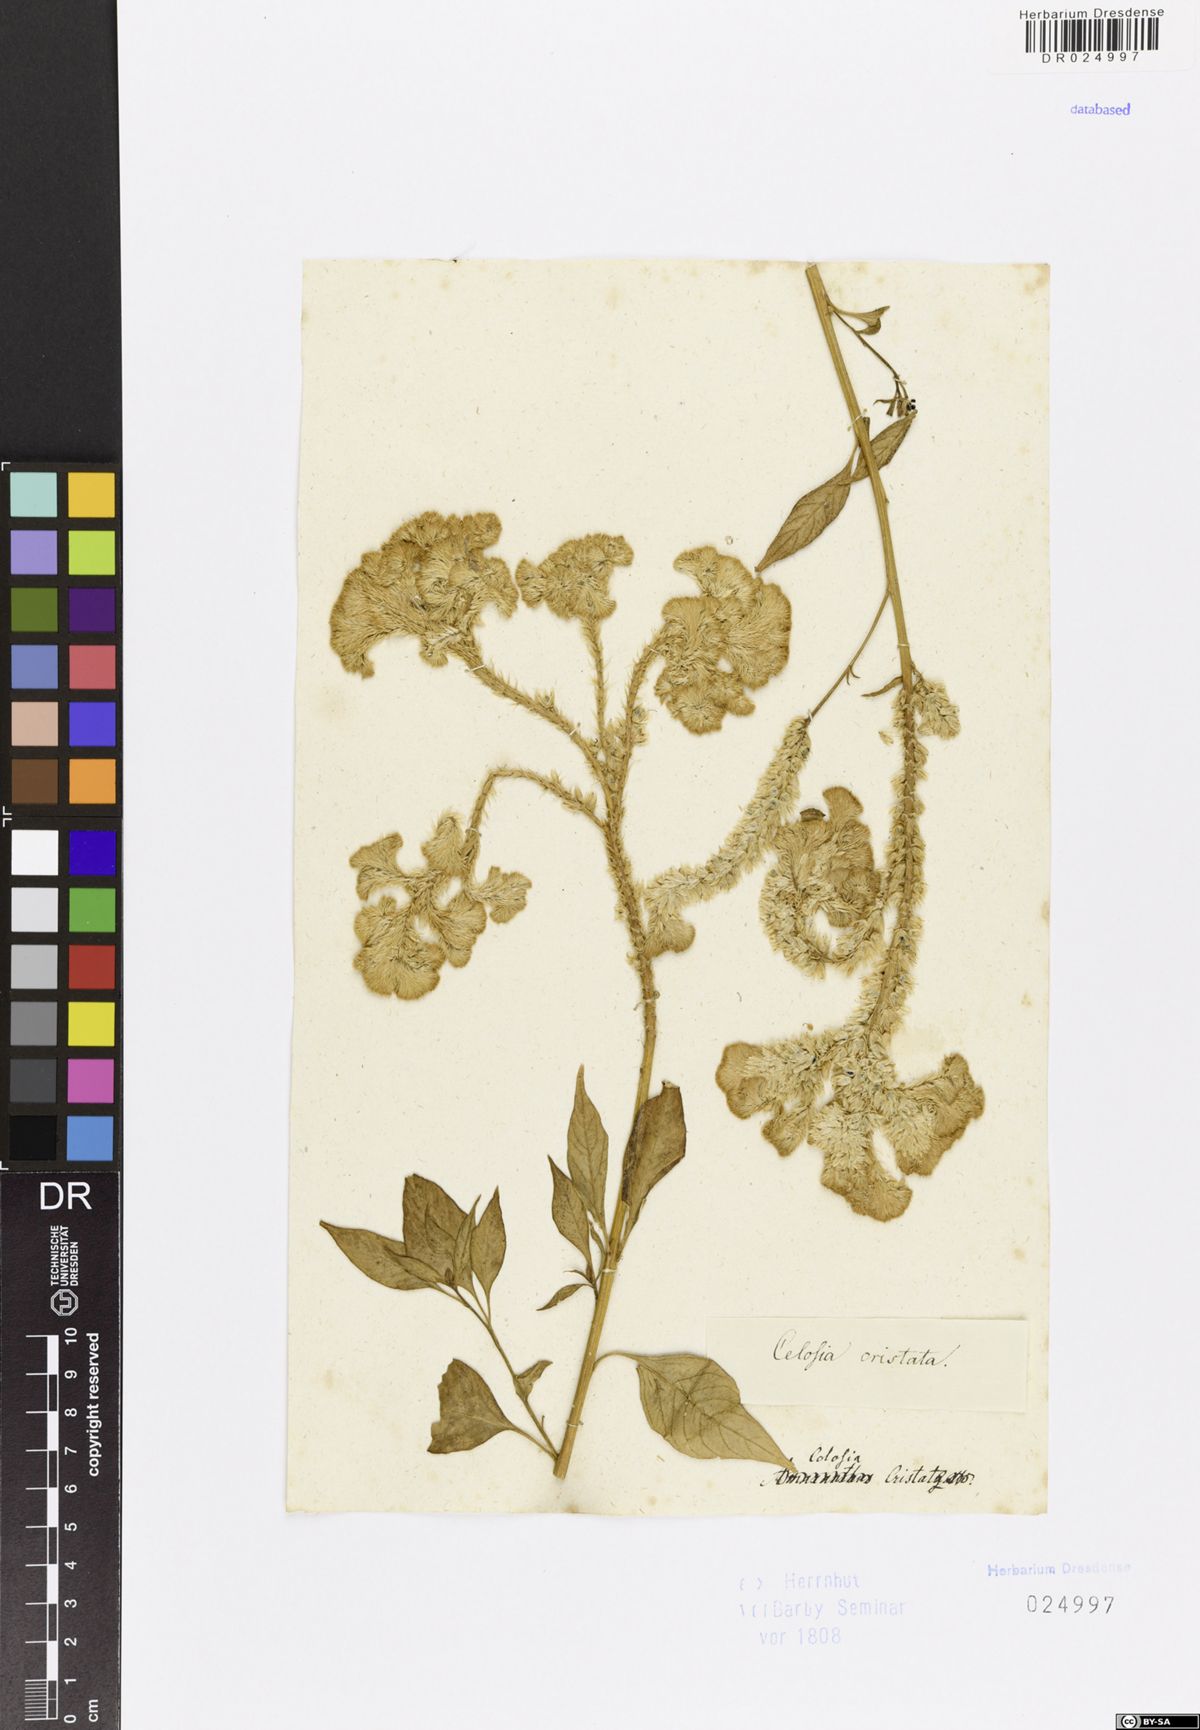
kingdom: Plantae
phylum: Tracheophyta
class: Magnoliopsida
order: Caryophyllales
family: Amaranthaceae
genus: Celosia
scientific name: Celosia argentea
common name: Feather cockscomb
